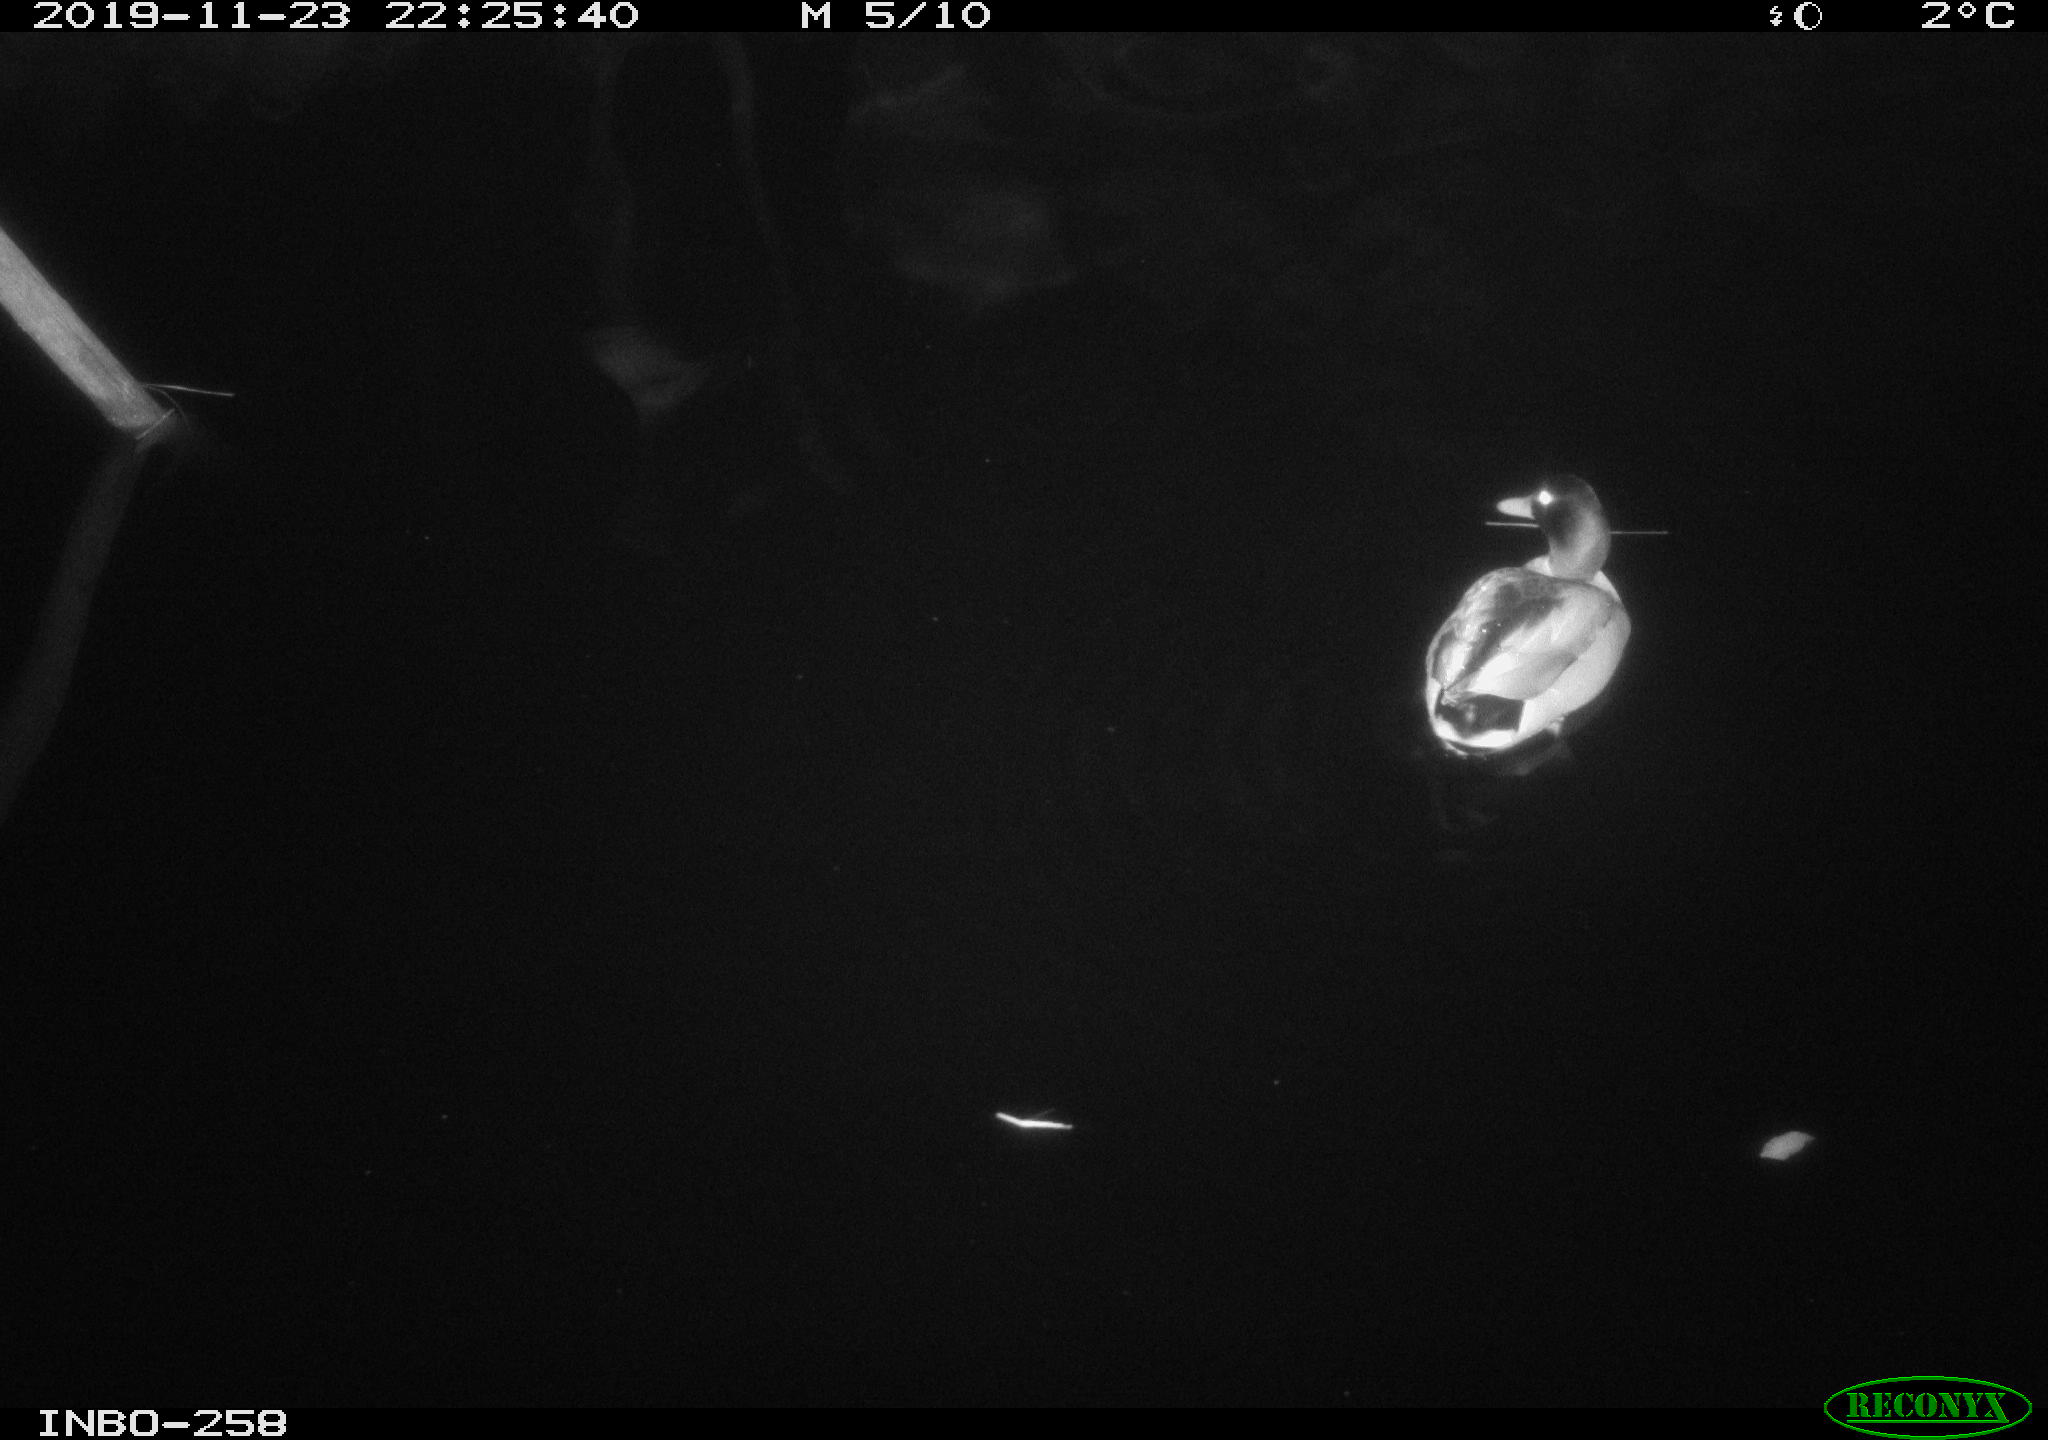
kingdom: Animalia
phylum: Chordata
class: Aves
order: Anseriformes
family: Anatidae
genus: Anas
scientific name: Anas platyrhynchos
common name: Mallard
